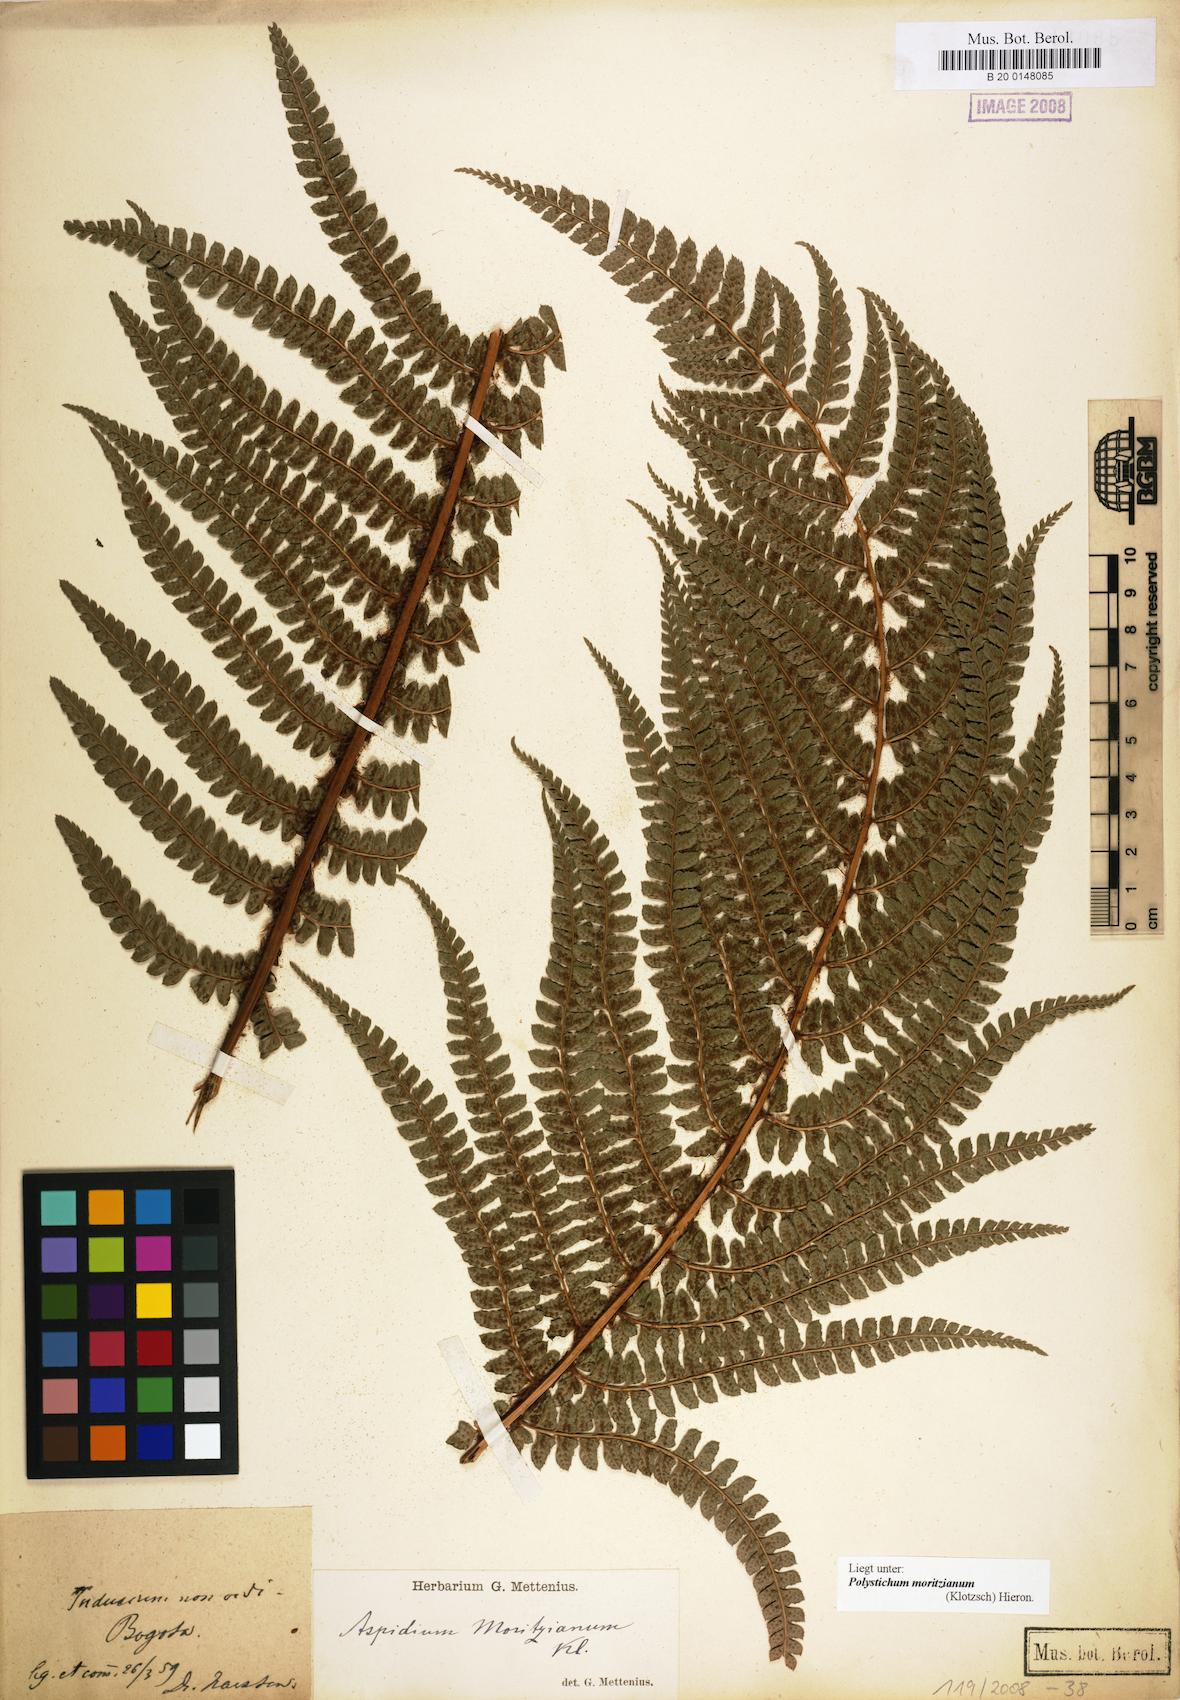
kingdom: Plantae
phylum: Tracheophyta
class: Polypodiopsida
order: Polypodiales
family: Dryopteridaceae
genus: Polystichum
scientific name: Polystichum muricatum
